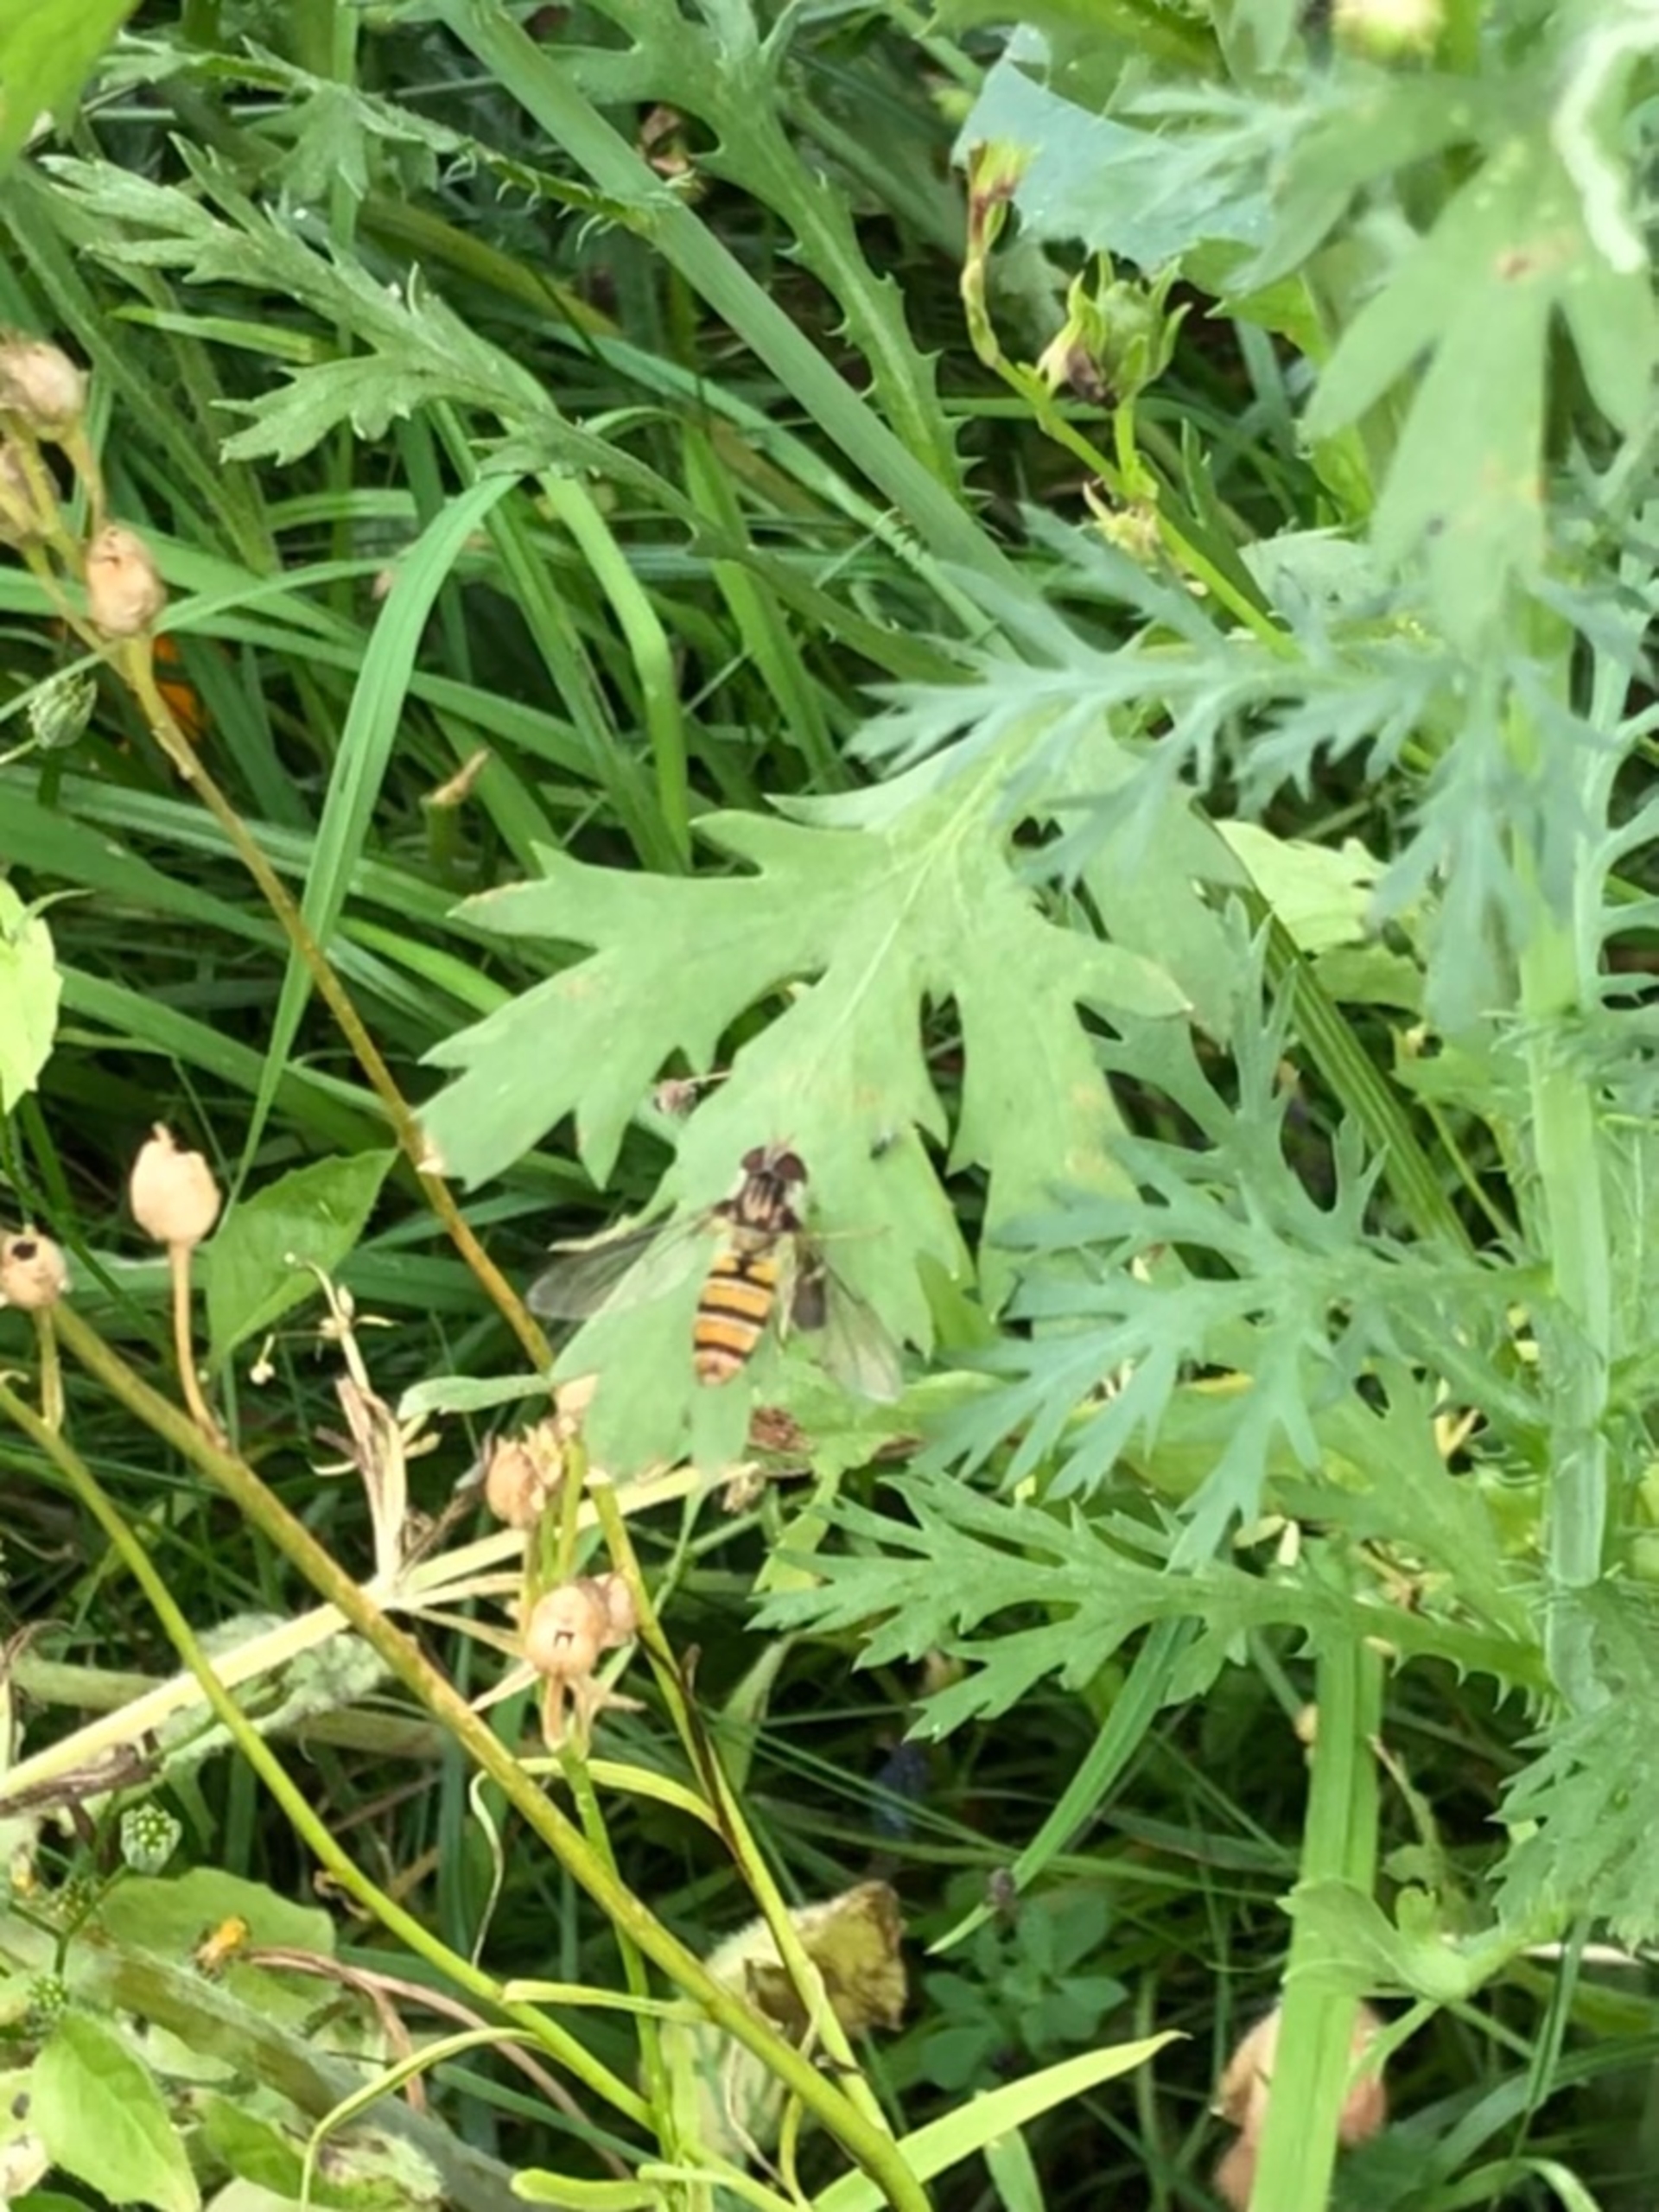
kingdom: Animalia
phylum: Arthropoda
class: Insecta
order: Diptera
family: Syrphidae
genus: Episyrphus
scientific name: Episyrphus balteatus
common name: Dobbeltbåndet svirreflue
